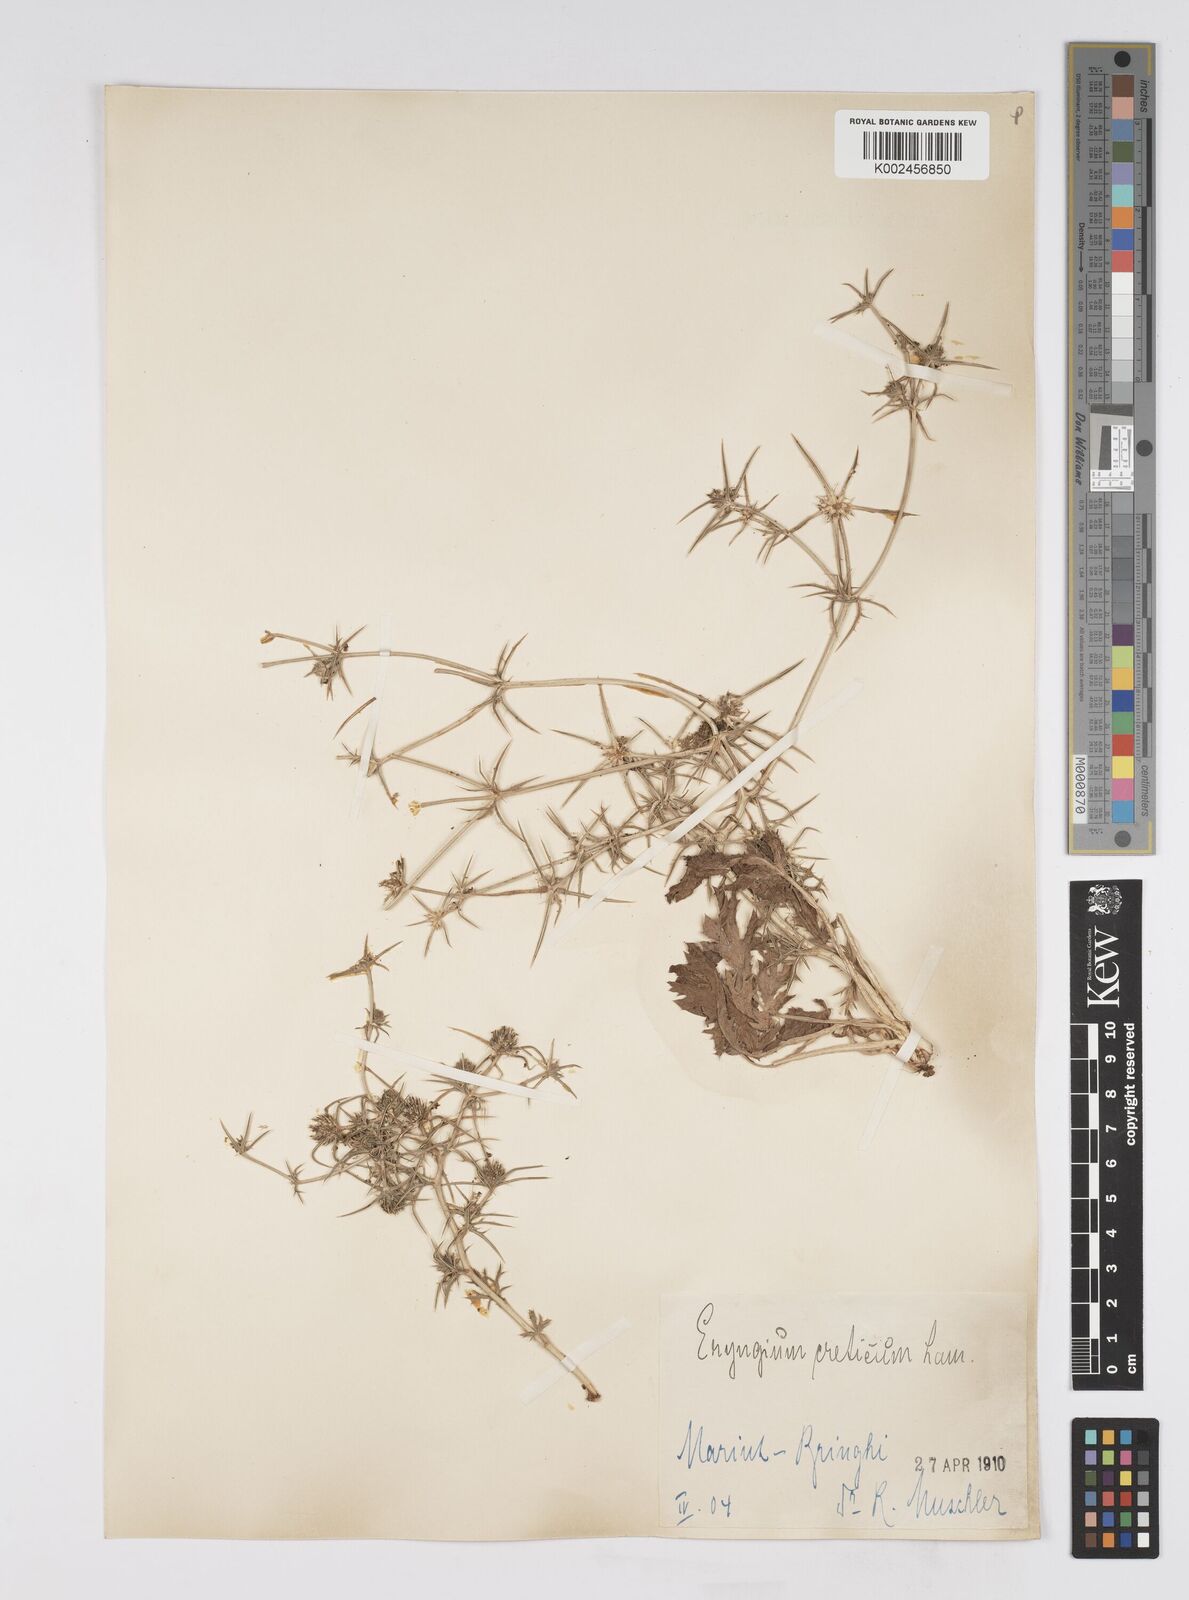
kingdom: Plantae
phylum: Tracheophyta
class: Magnoliopsida
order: Apiales
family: Apiaceae
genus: Eryngium
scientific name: Eryngium creticum
